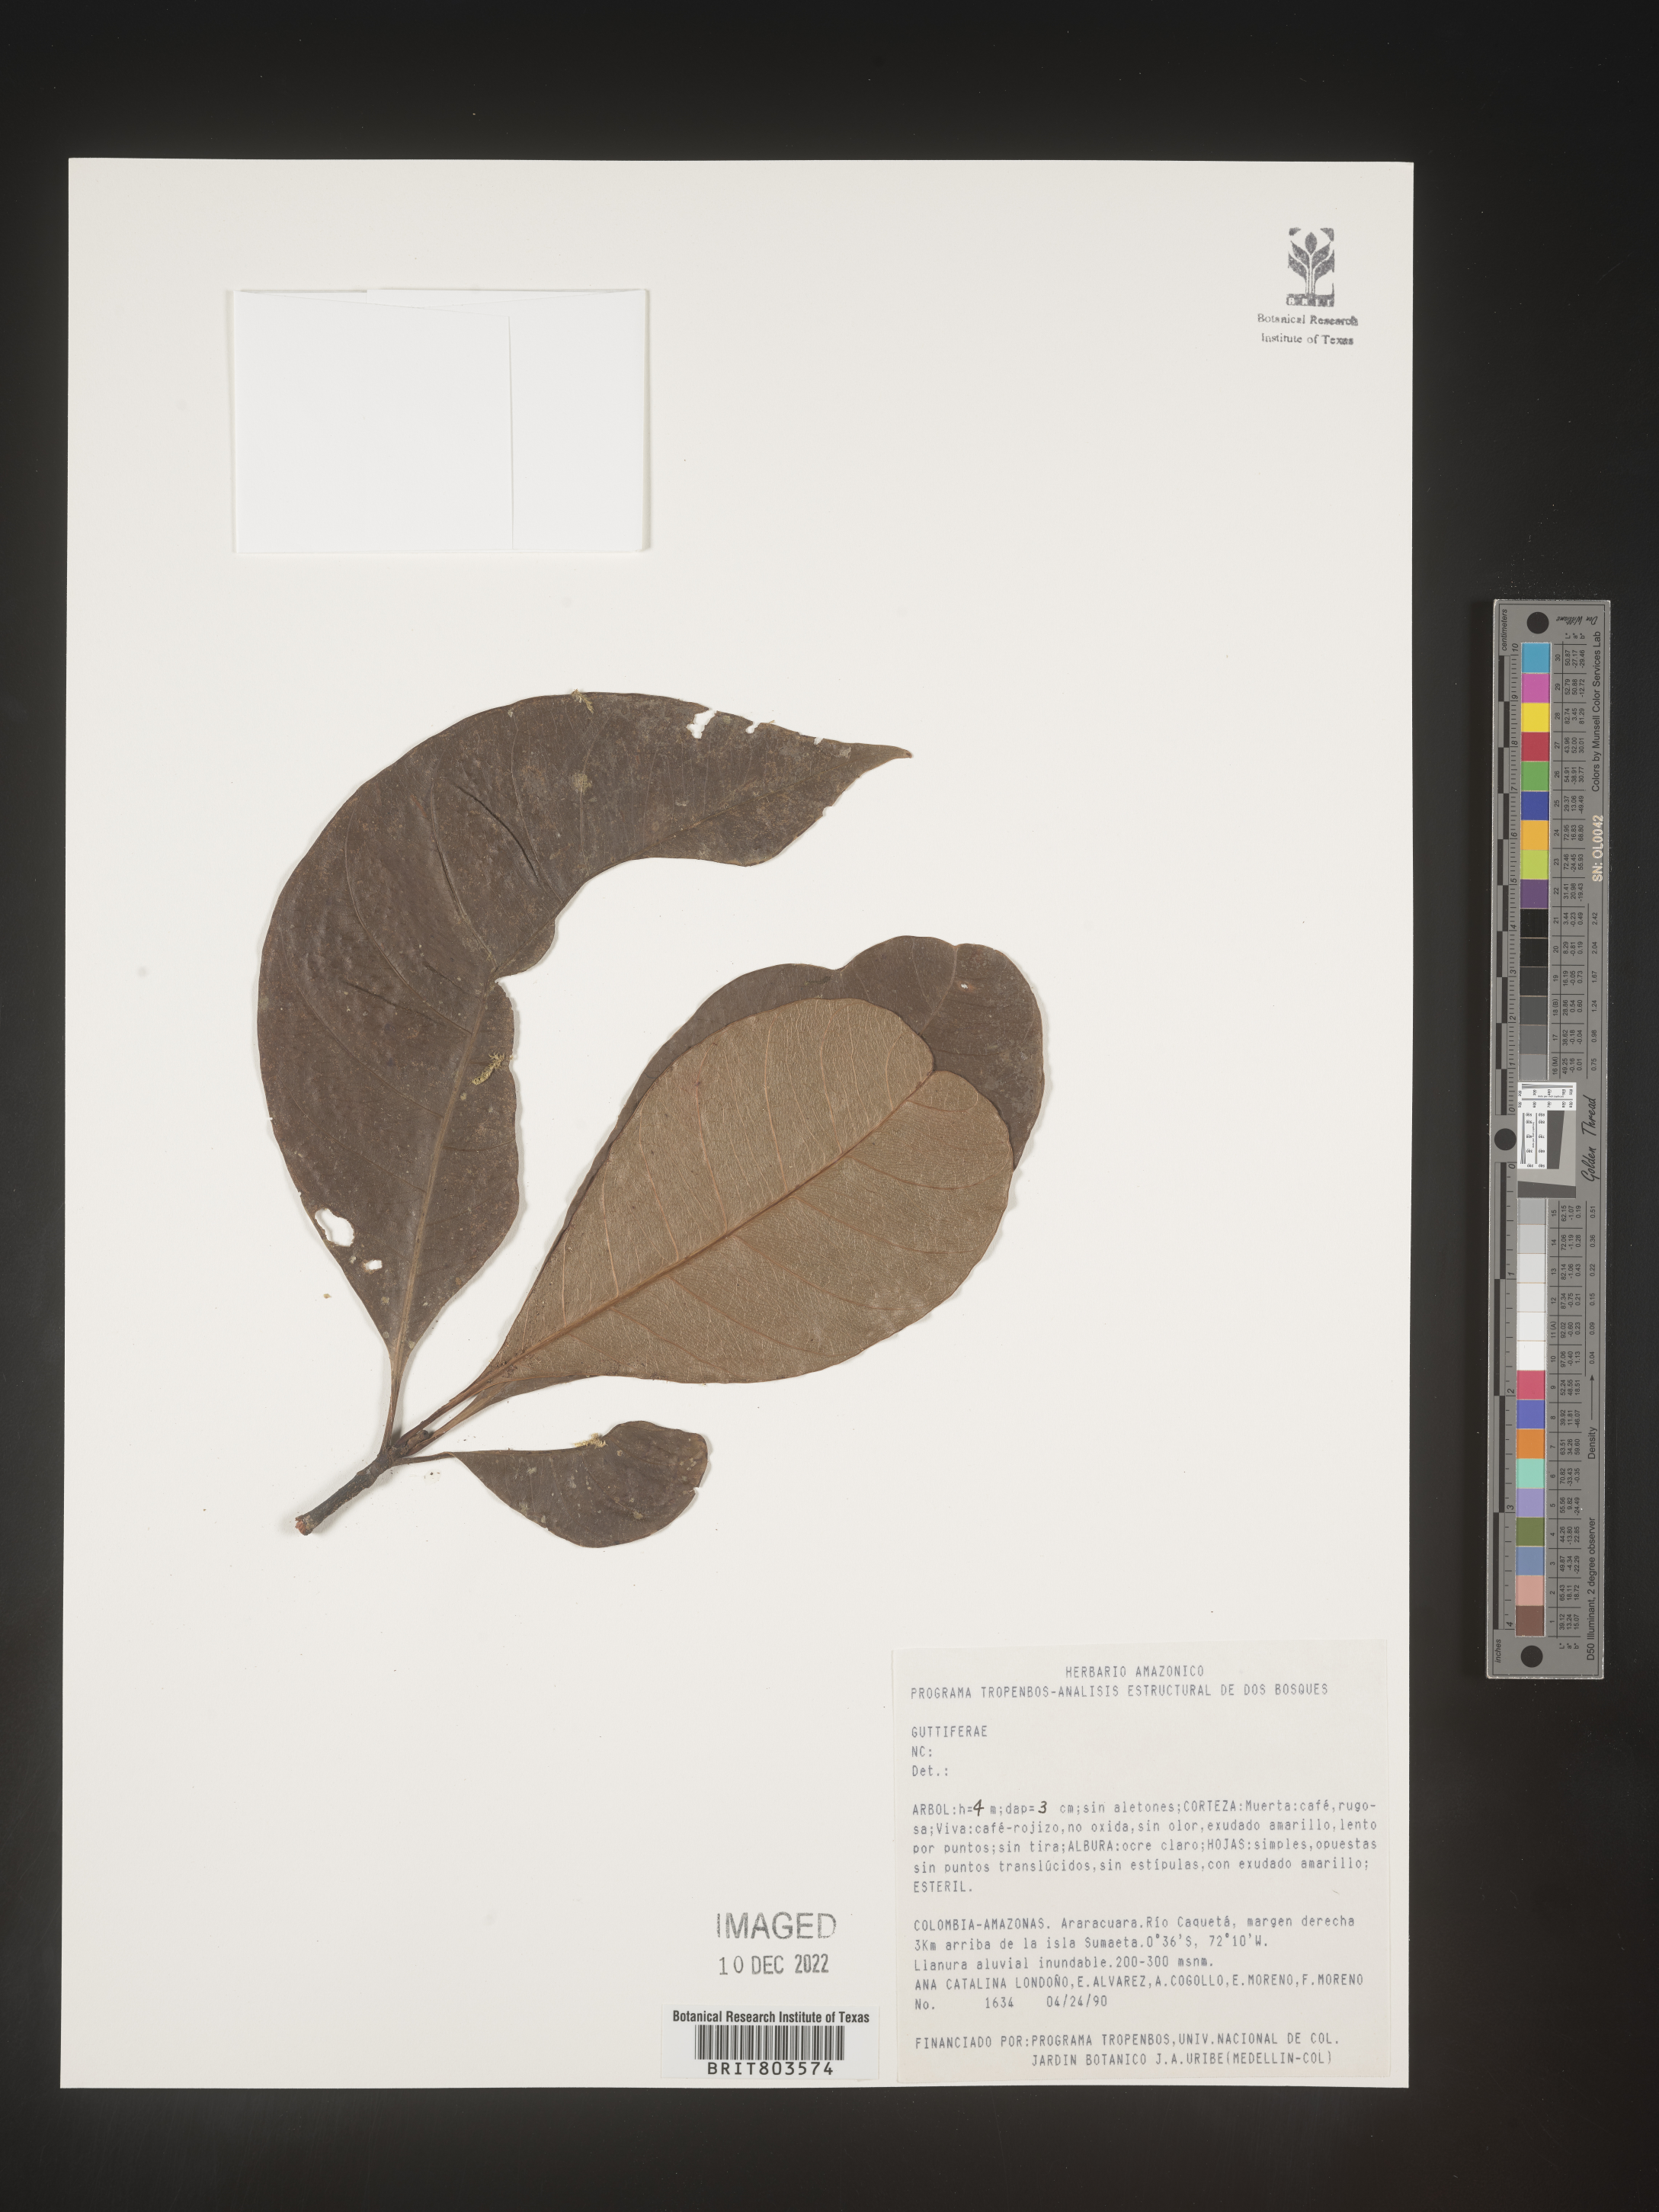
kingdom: Plantae
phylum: Tracheophyta
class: Magnoliopsida
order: Malpighiales
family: Clusiaceae
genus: Tovomita
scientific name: Tovomita
